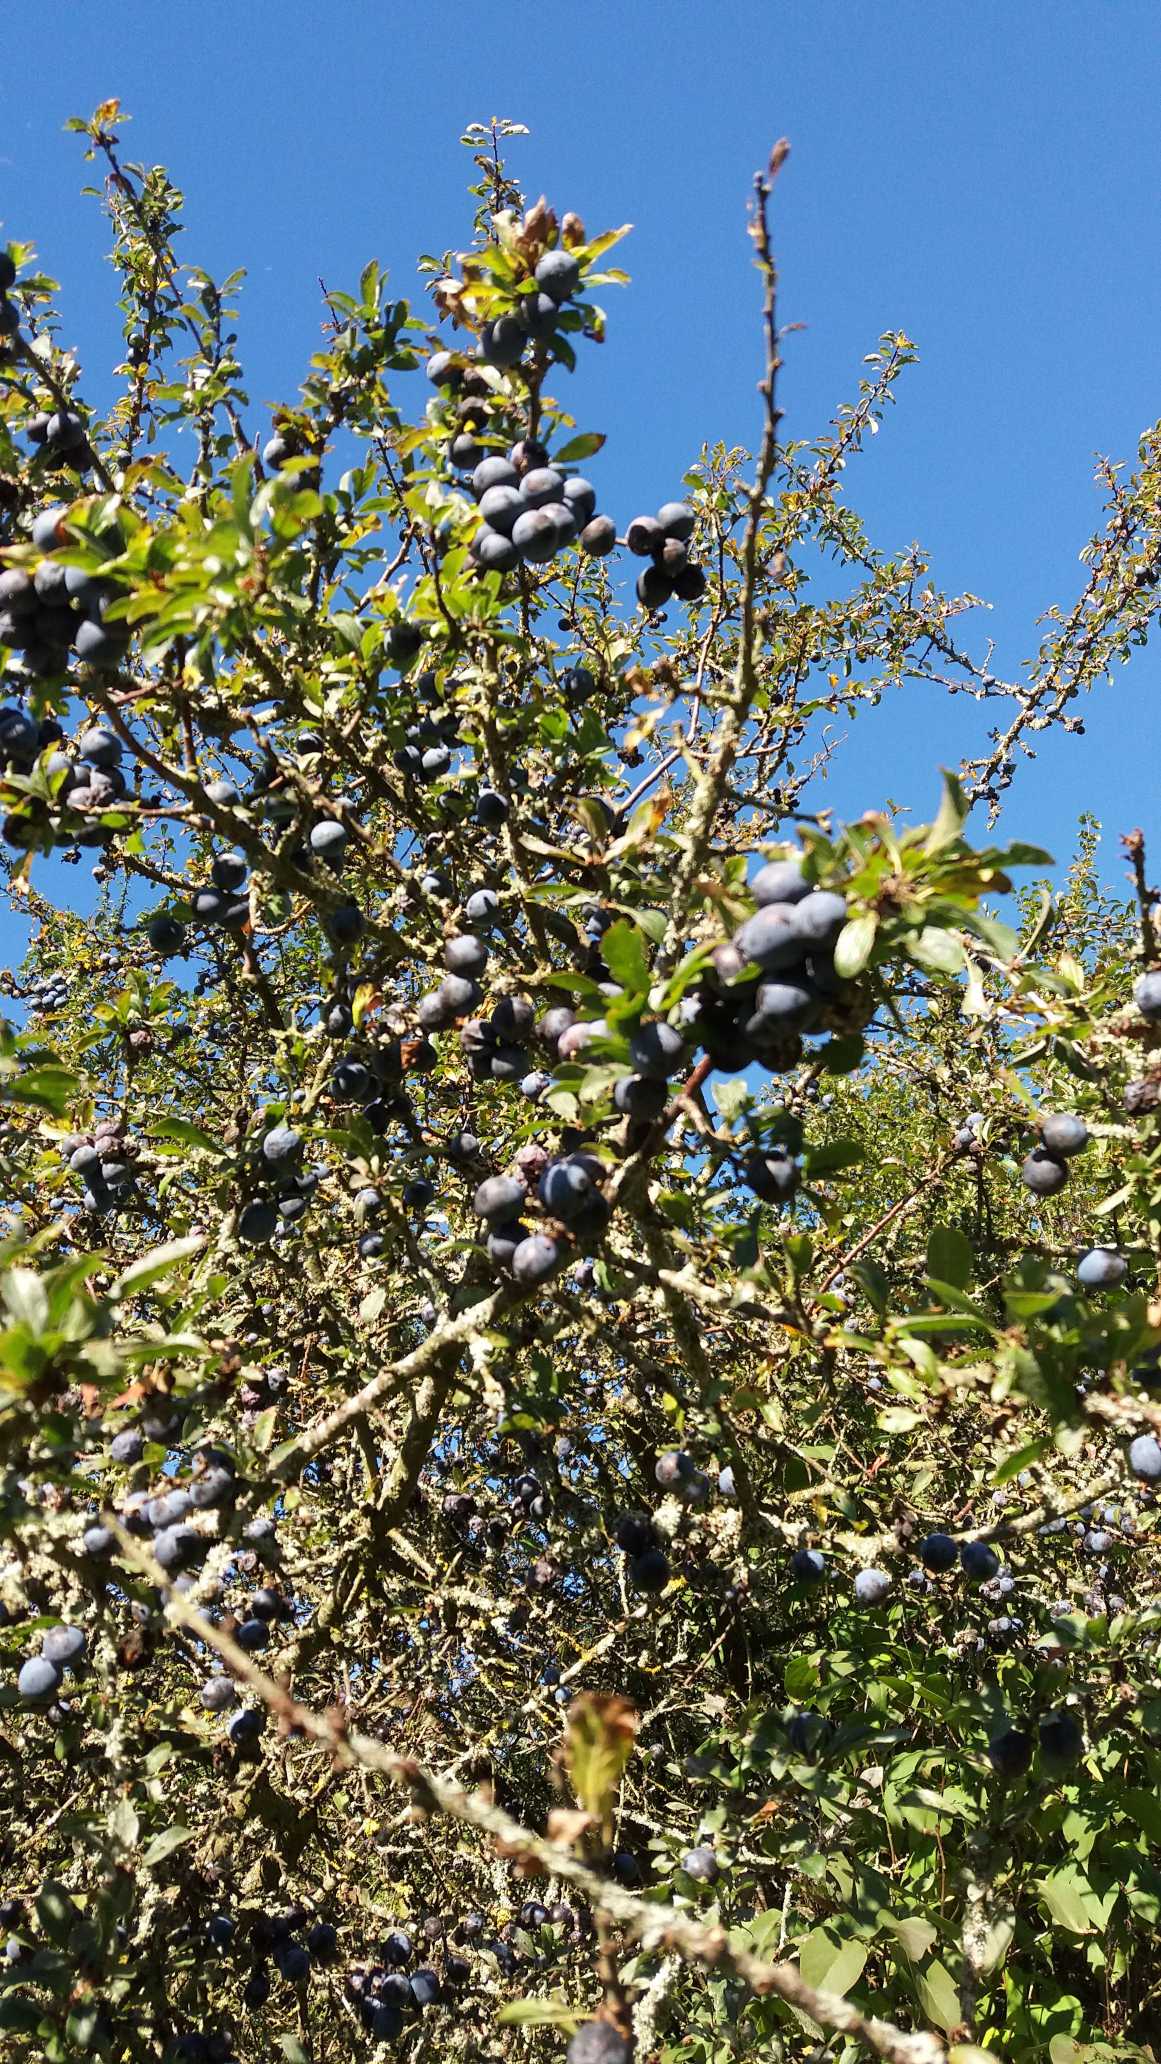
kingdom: Plantae
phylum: Tracheophyta
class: Magnoliopsida
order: Rosales
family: Rosaceae
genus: Prunus
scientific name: Prunus spinosa
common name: Slåen
